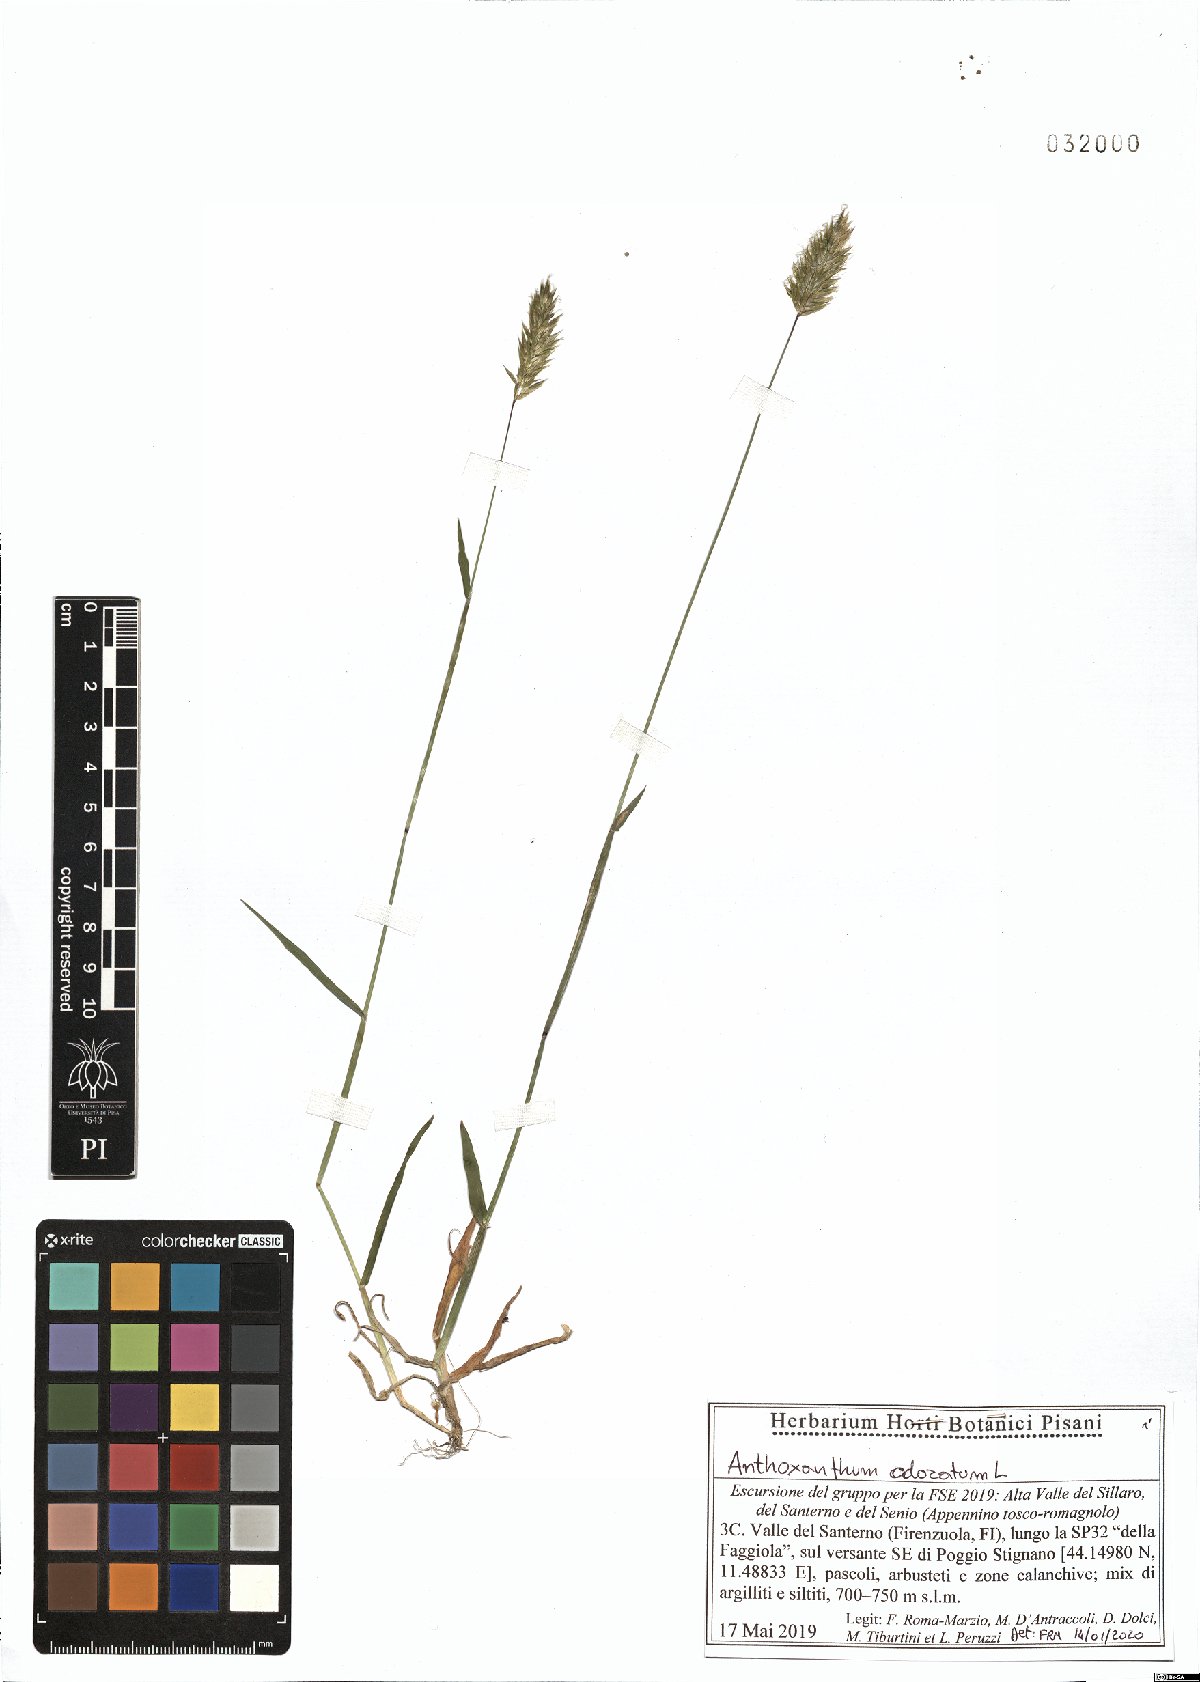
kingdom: Plantae
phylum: Tracheophyta
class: Liliopsida
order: Poales
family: Poaceae
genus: Anthoxanthum
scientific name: Anthoxanthum odoratum
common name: Sweet vernalgrass
